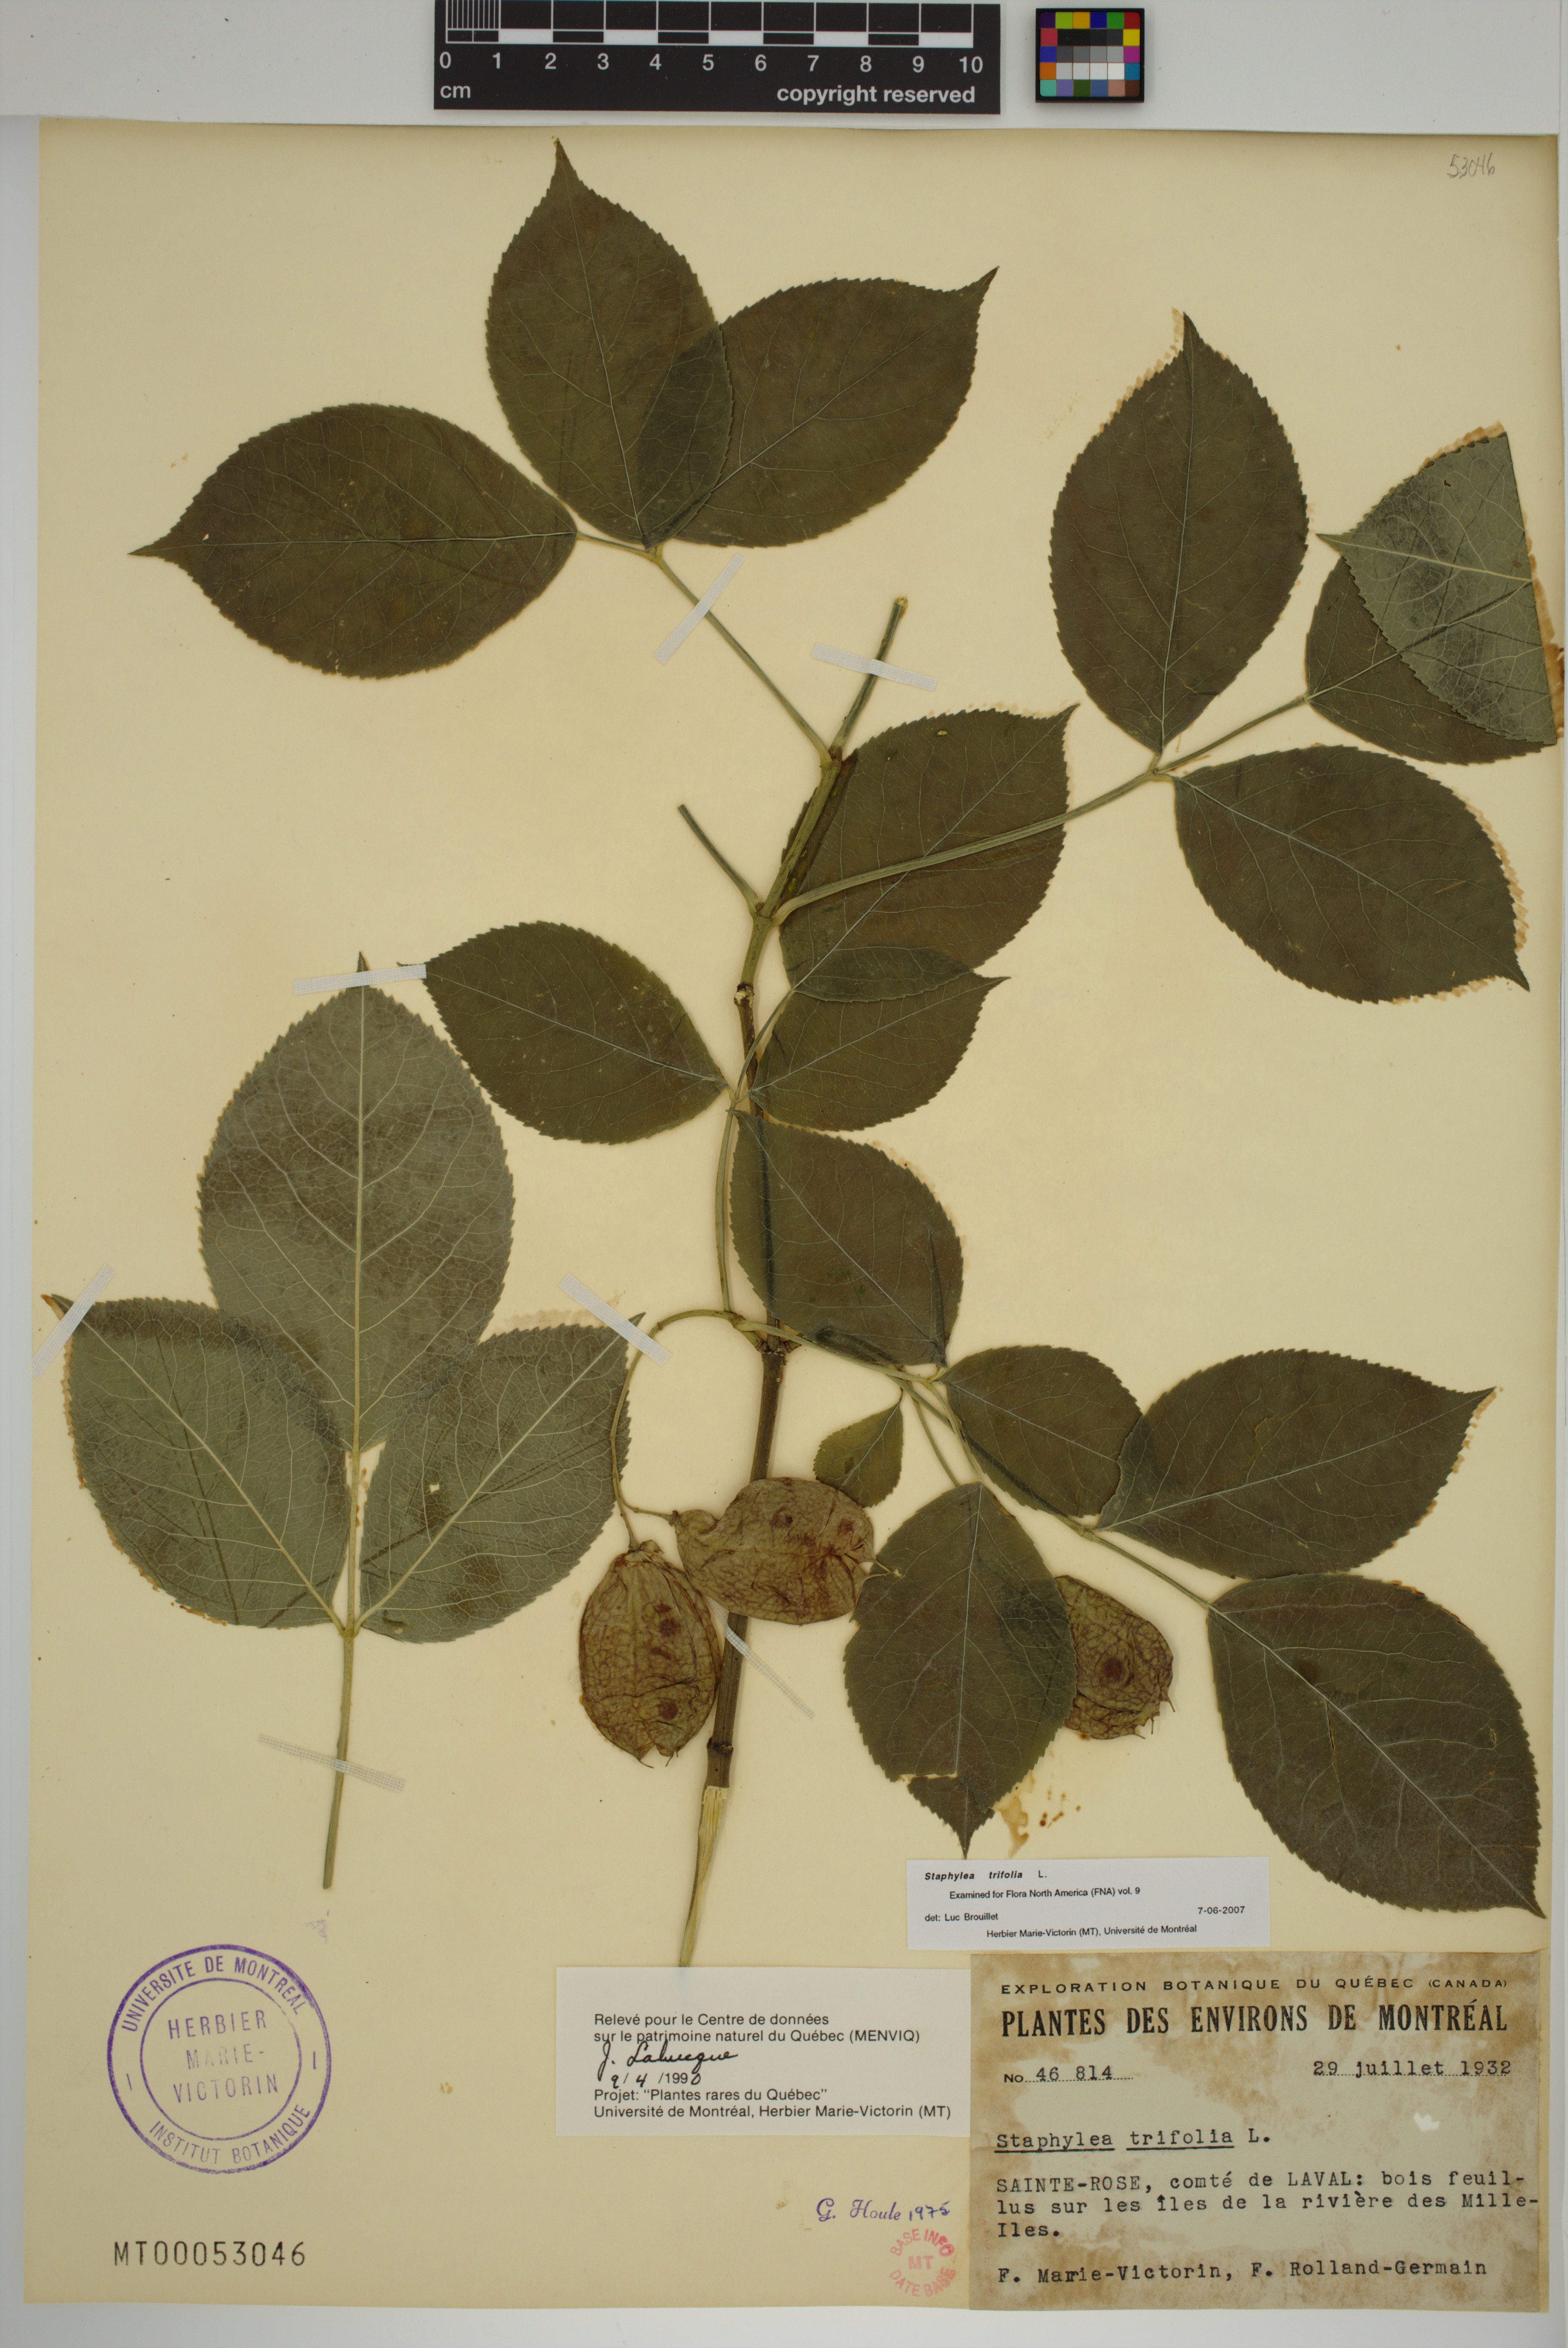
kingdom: Plantae
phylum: Tracheophyta
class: Magnoliopsida
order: Crossosomatales
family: Staphyleaceae
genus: Staphylea
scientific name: Staphylea trifolia
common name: American bladdernut
